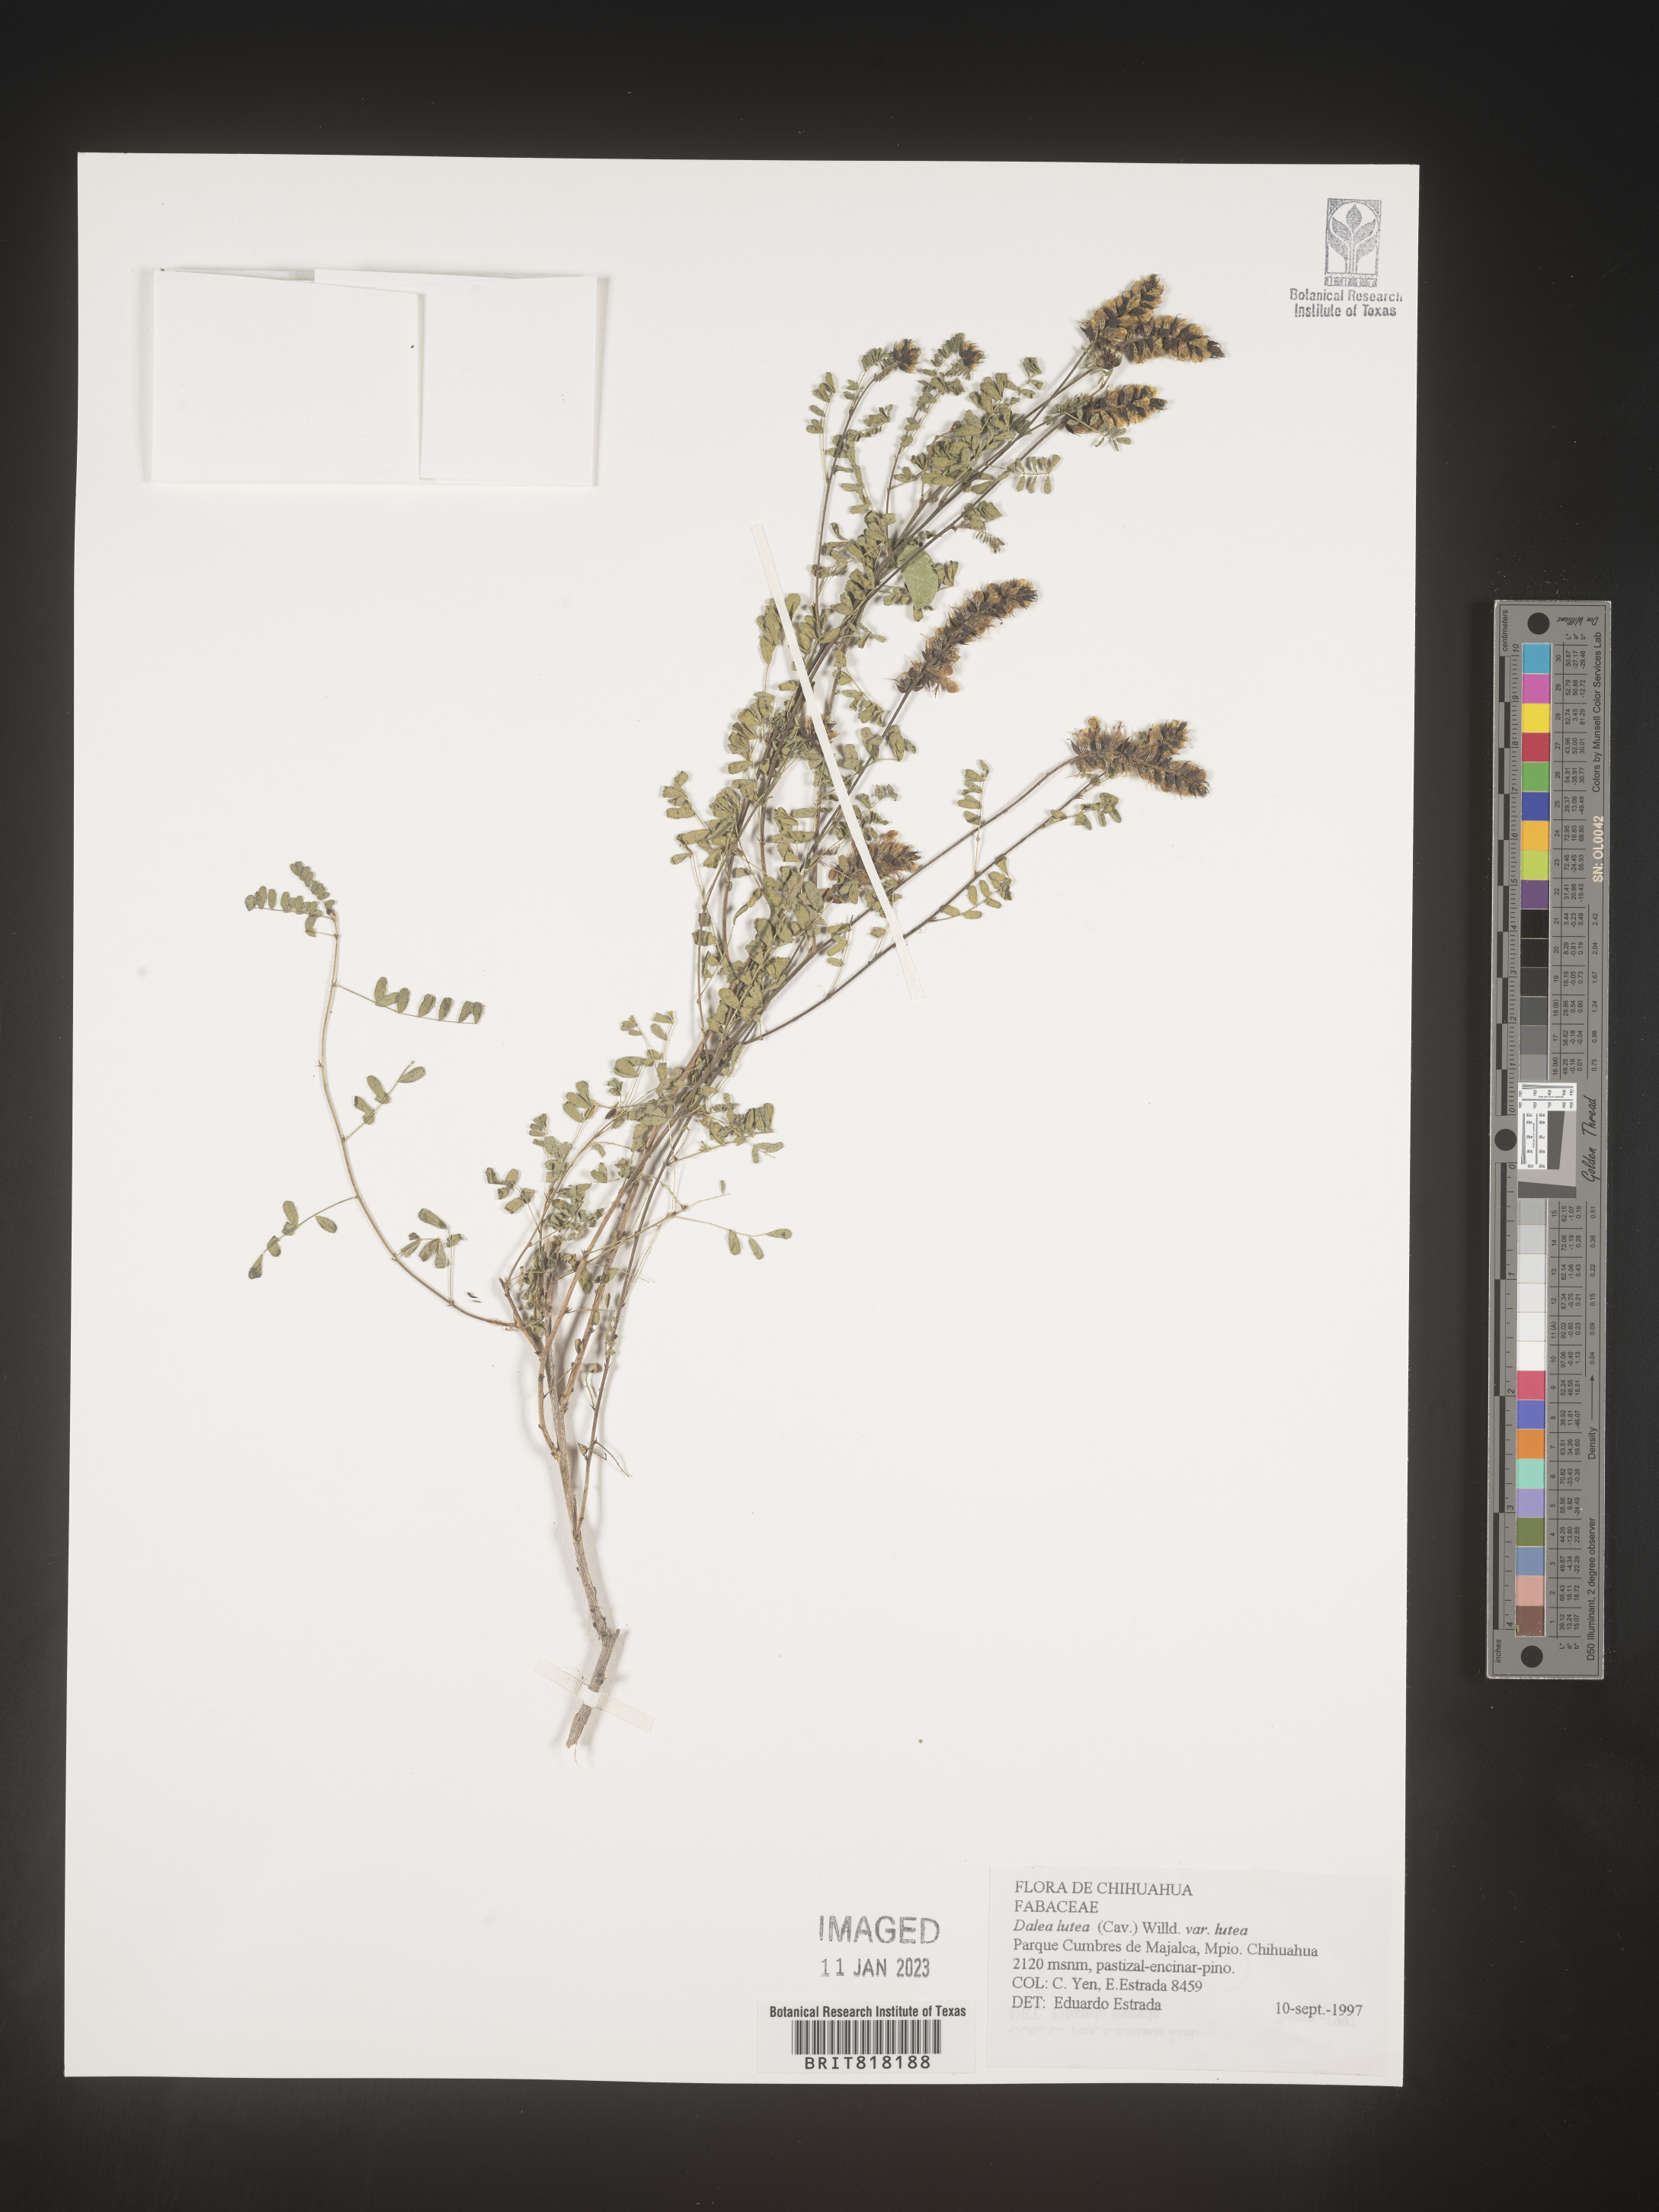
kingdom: Plantae
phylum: Tracheophyta
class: Magnoliopsida
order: Fabales
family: Fabaceae
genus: Dalea
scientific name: Dalea
